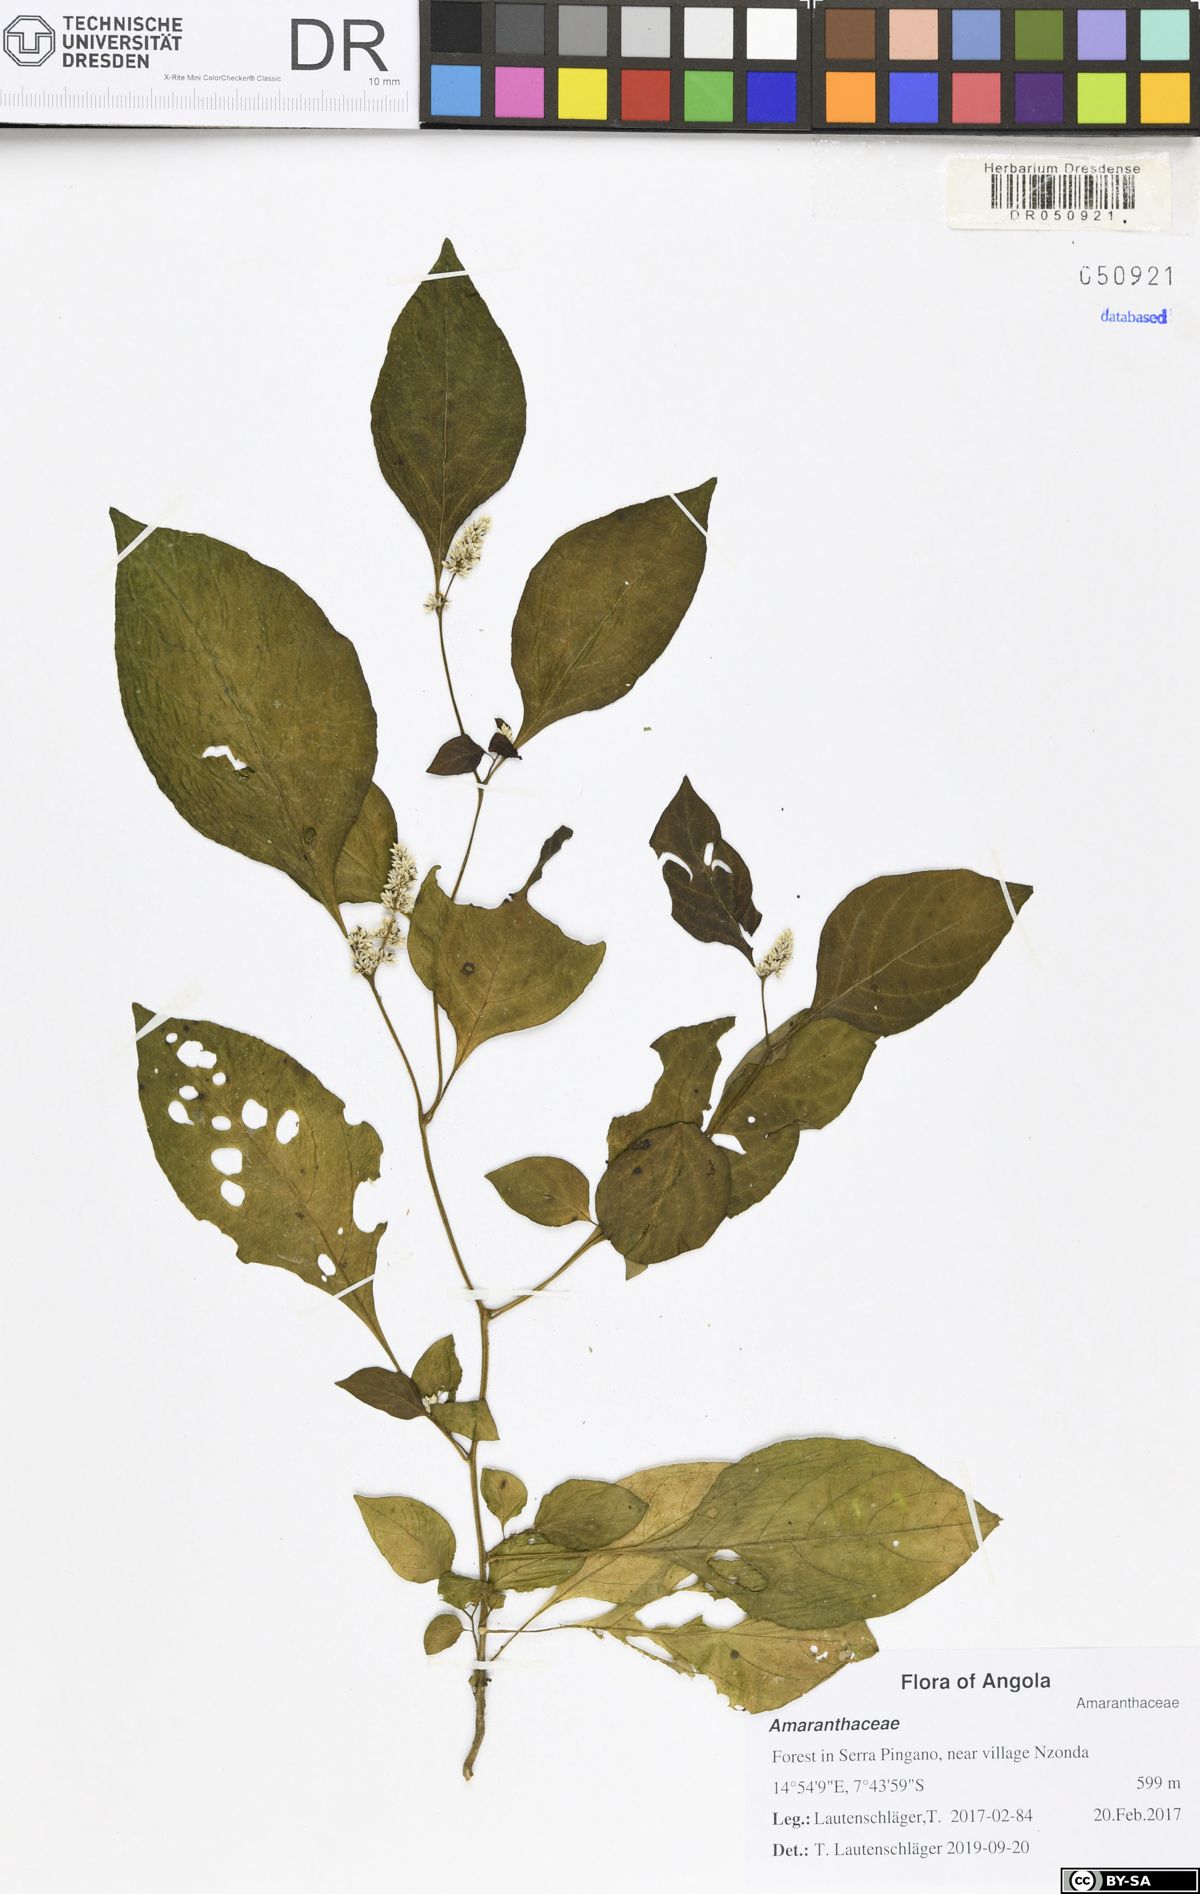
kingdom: Plantae
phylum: Tracheophyta
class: Magnoliopsida
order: Caryophyllales
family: Amaranthaceae
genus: Celosia
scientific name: Celosia trigyna
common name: Woolflower
